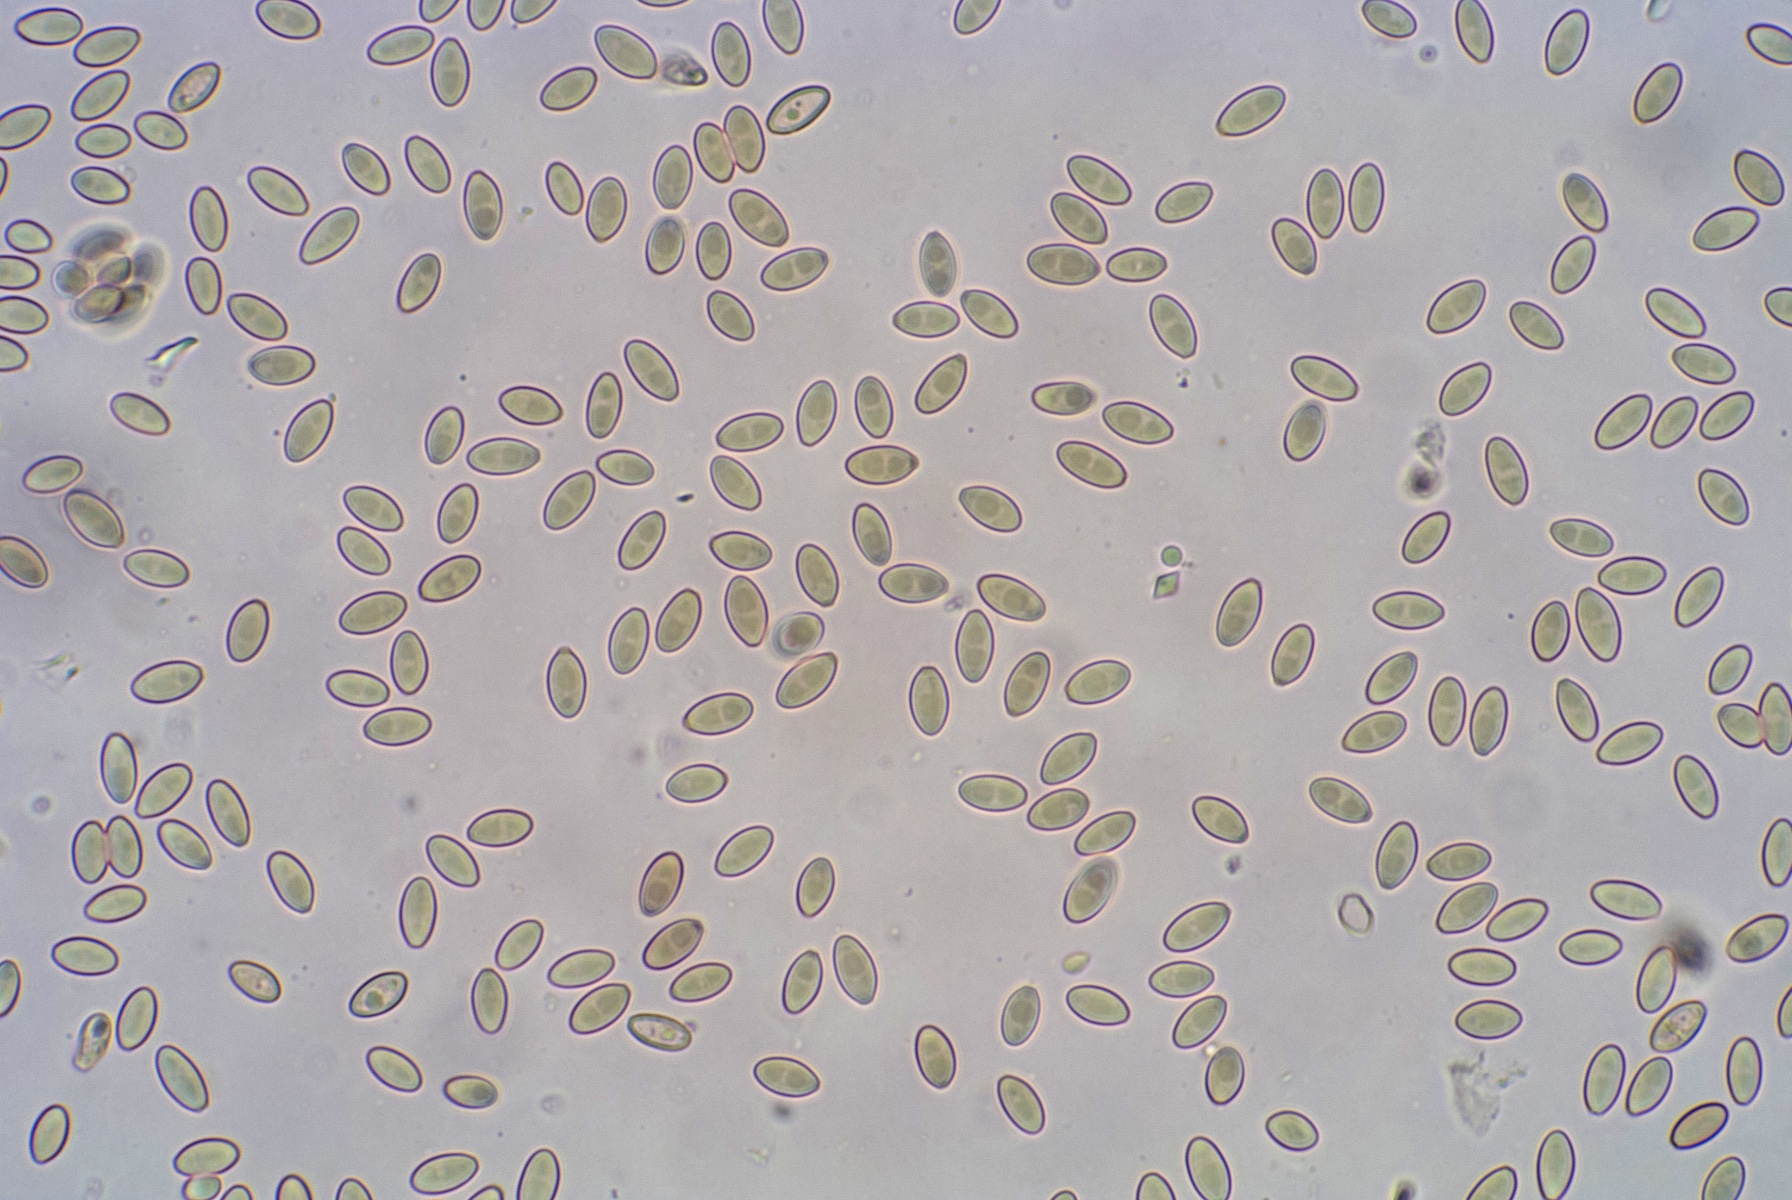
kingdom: Fungi
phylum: Basidiomycota
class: Agaricomycetes
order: Boletales
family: Rhizopogonaceae
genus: Rhizopogon
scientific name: Rhizopogon villosulus
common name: sortnende skægtrøffel
